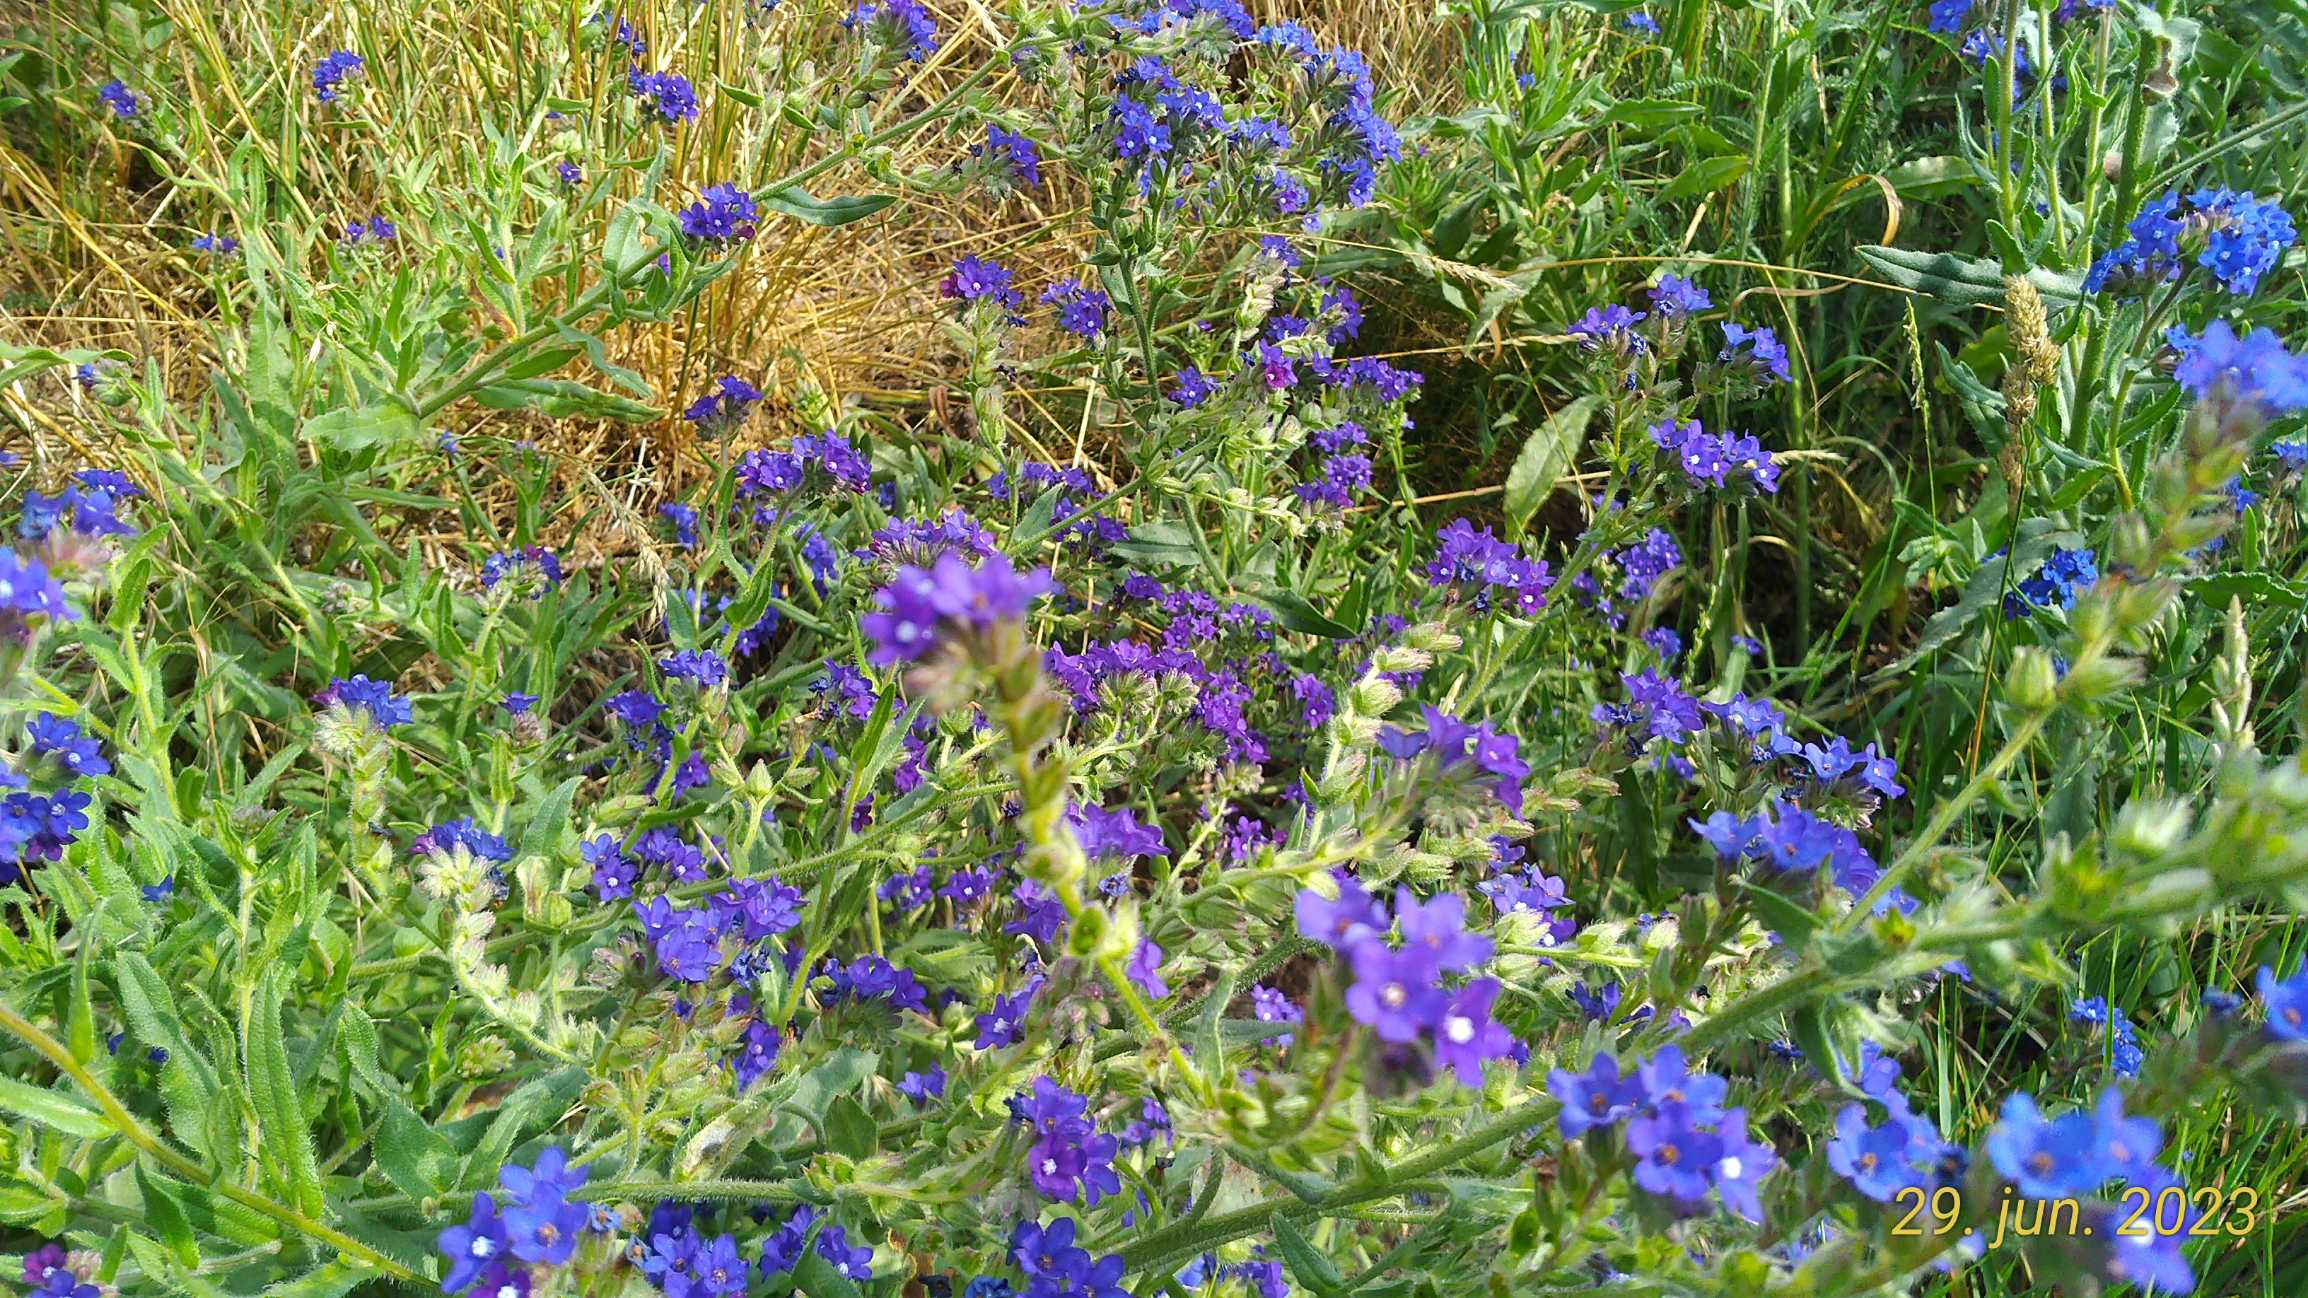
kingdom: Plantae
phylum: Tracheophyta
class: Magnoliopsida
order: Boraginales
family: Boraginaceae
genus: Anchusa
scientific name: Anchusa officinalis
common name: Læge-oksetunge
